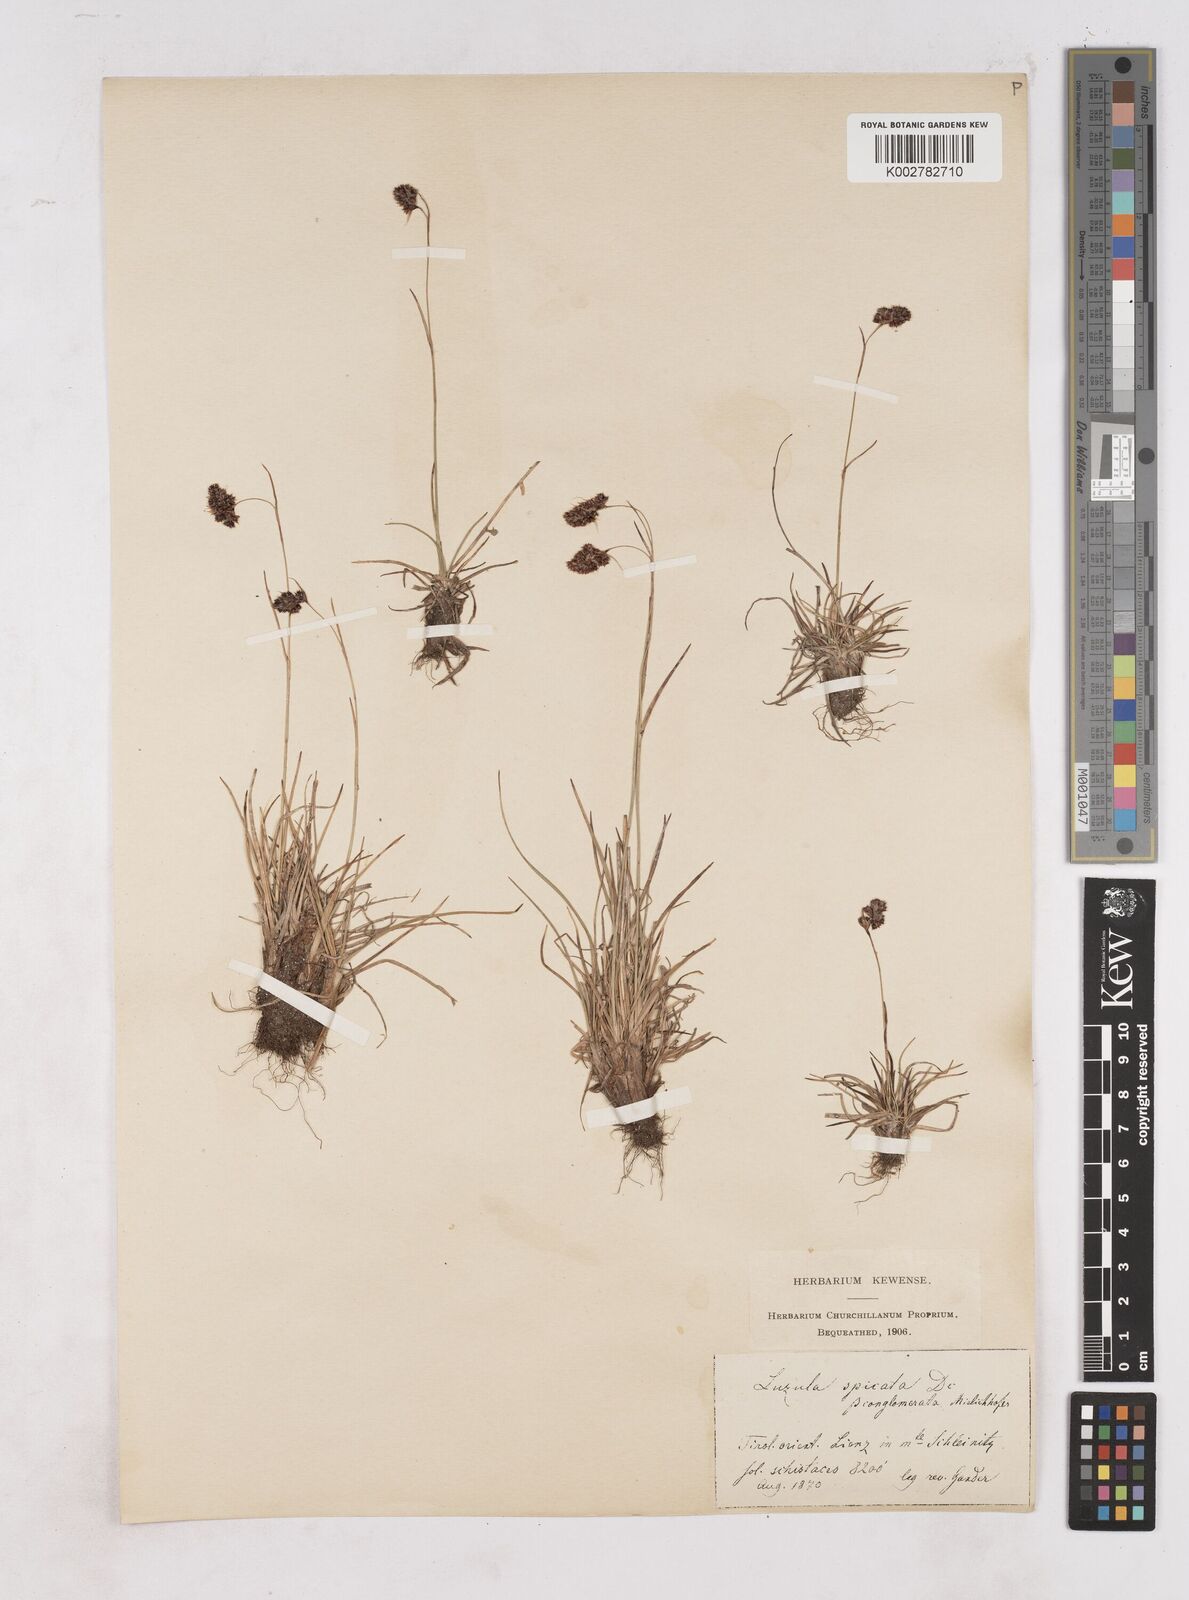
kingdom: Plantae
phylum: Tracheophyta
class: Liliopsida
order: Poales
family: Juncaceae
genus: Luzula
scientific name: Luzula spicata
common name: Spiked wood-rush
